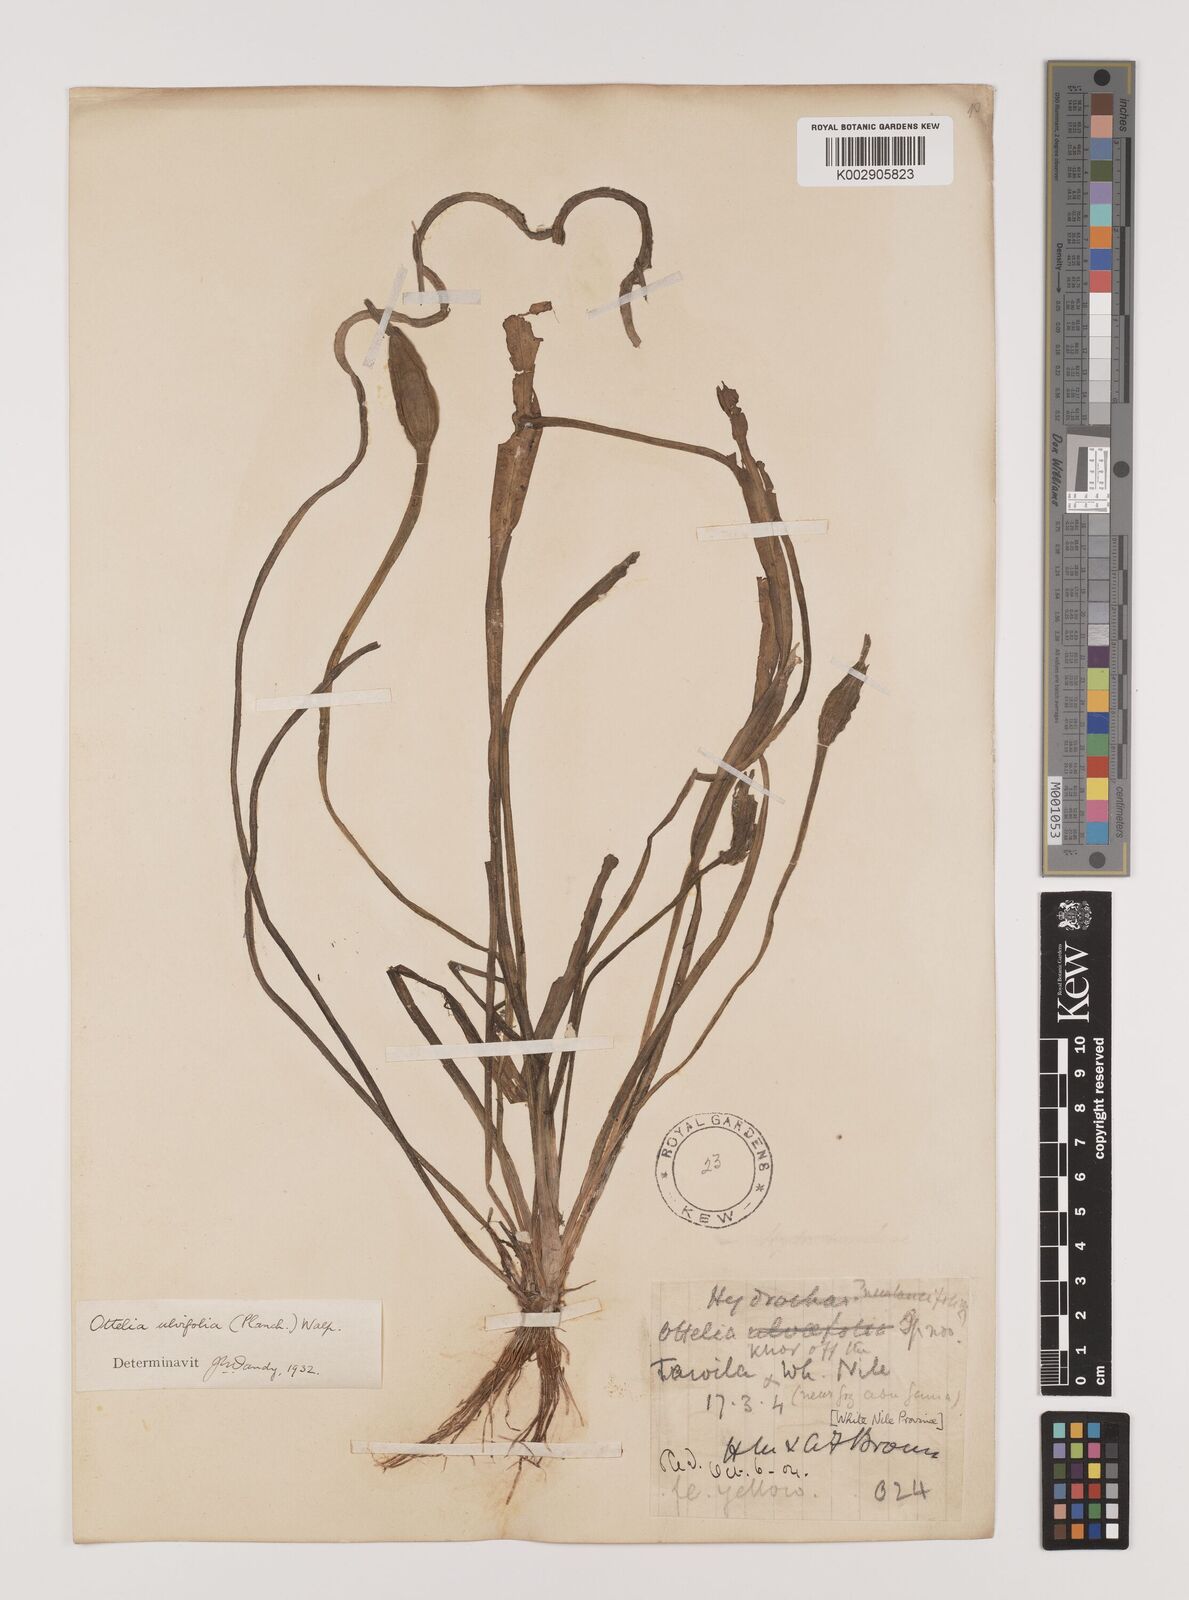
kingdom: Plantae
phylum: Tracheophyta
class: Liliopsida
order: Alismatales
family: Hydrocharitaceae
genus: Ottelia
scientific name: Ottelia ulvifolia
